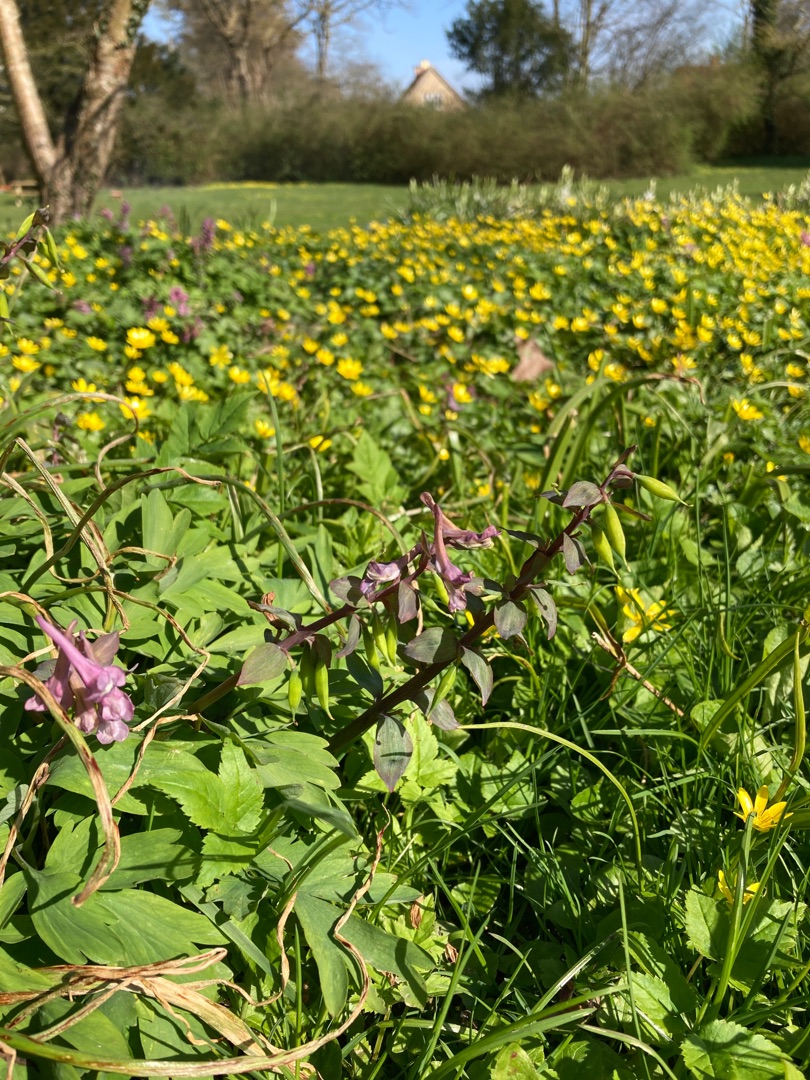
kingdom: Plantae
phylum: Tracheophyta
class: Magnoliopsida
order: Ranunculales
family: Papaveraceae
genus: Corydalis
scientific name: Corydalis cava
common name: Hulrodet lærkespore
